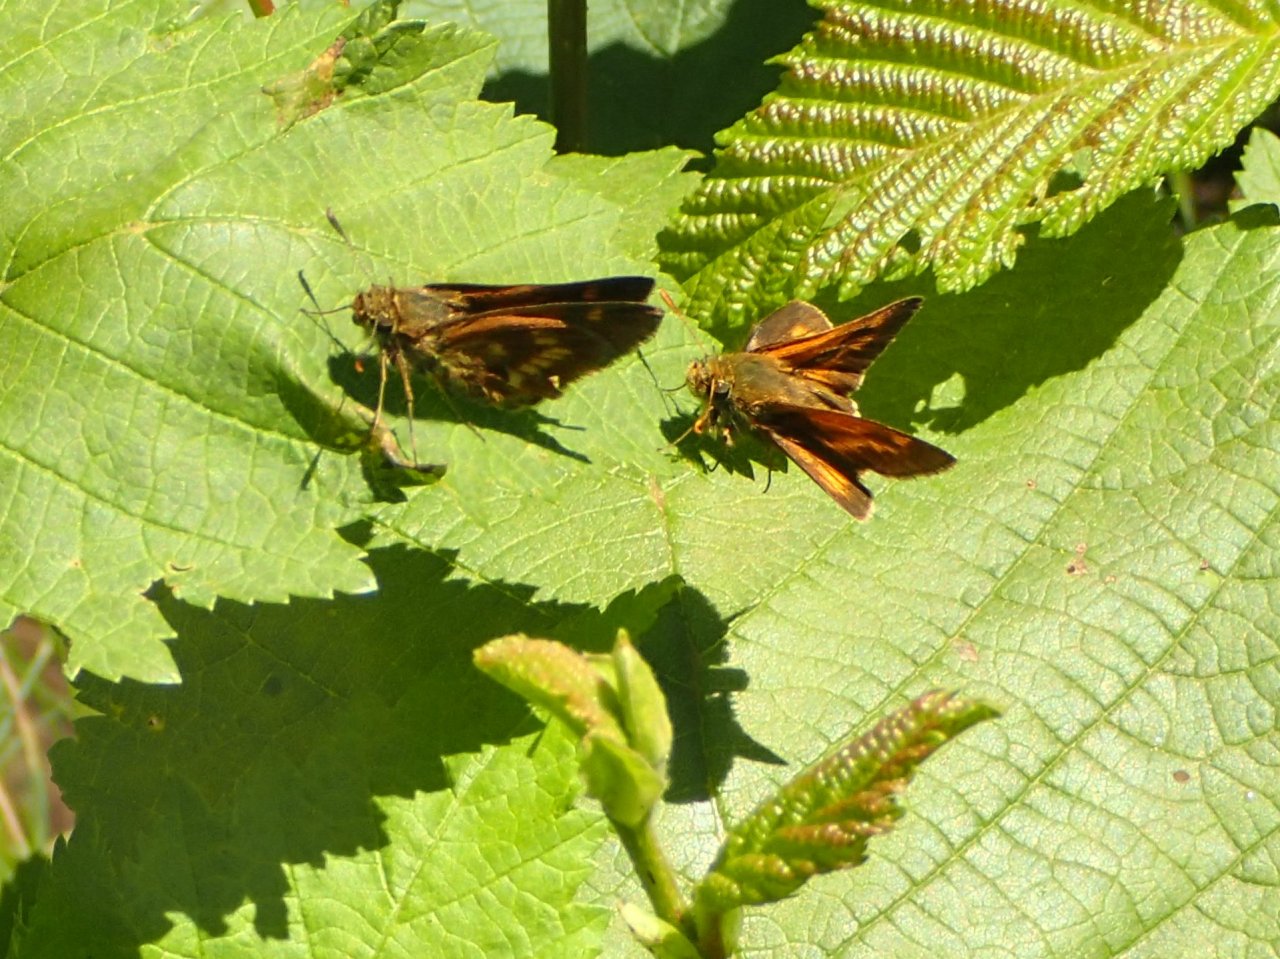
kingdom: Animalia
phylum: Arthropoda
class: Insecta
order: Lepidoptera
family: Hesperiidae
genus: Polites
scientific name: Polites
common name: Long Dash Skipper
